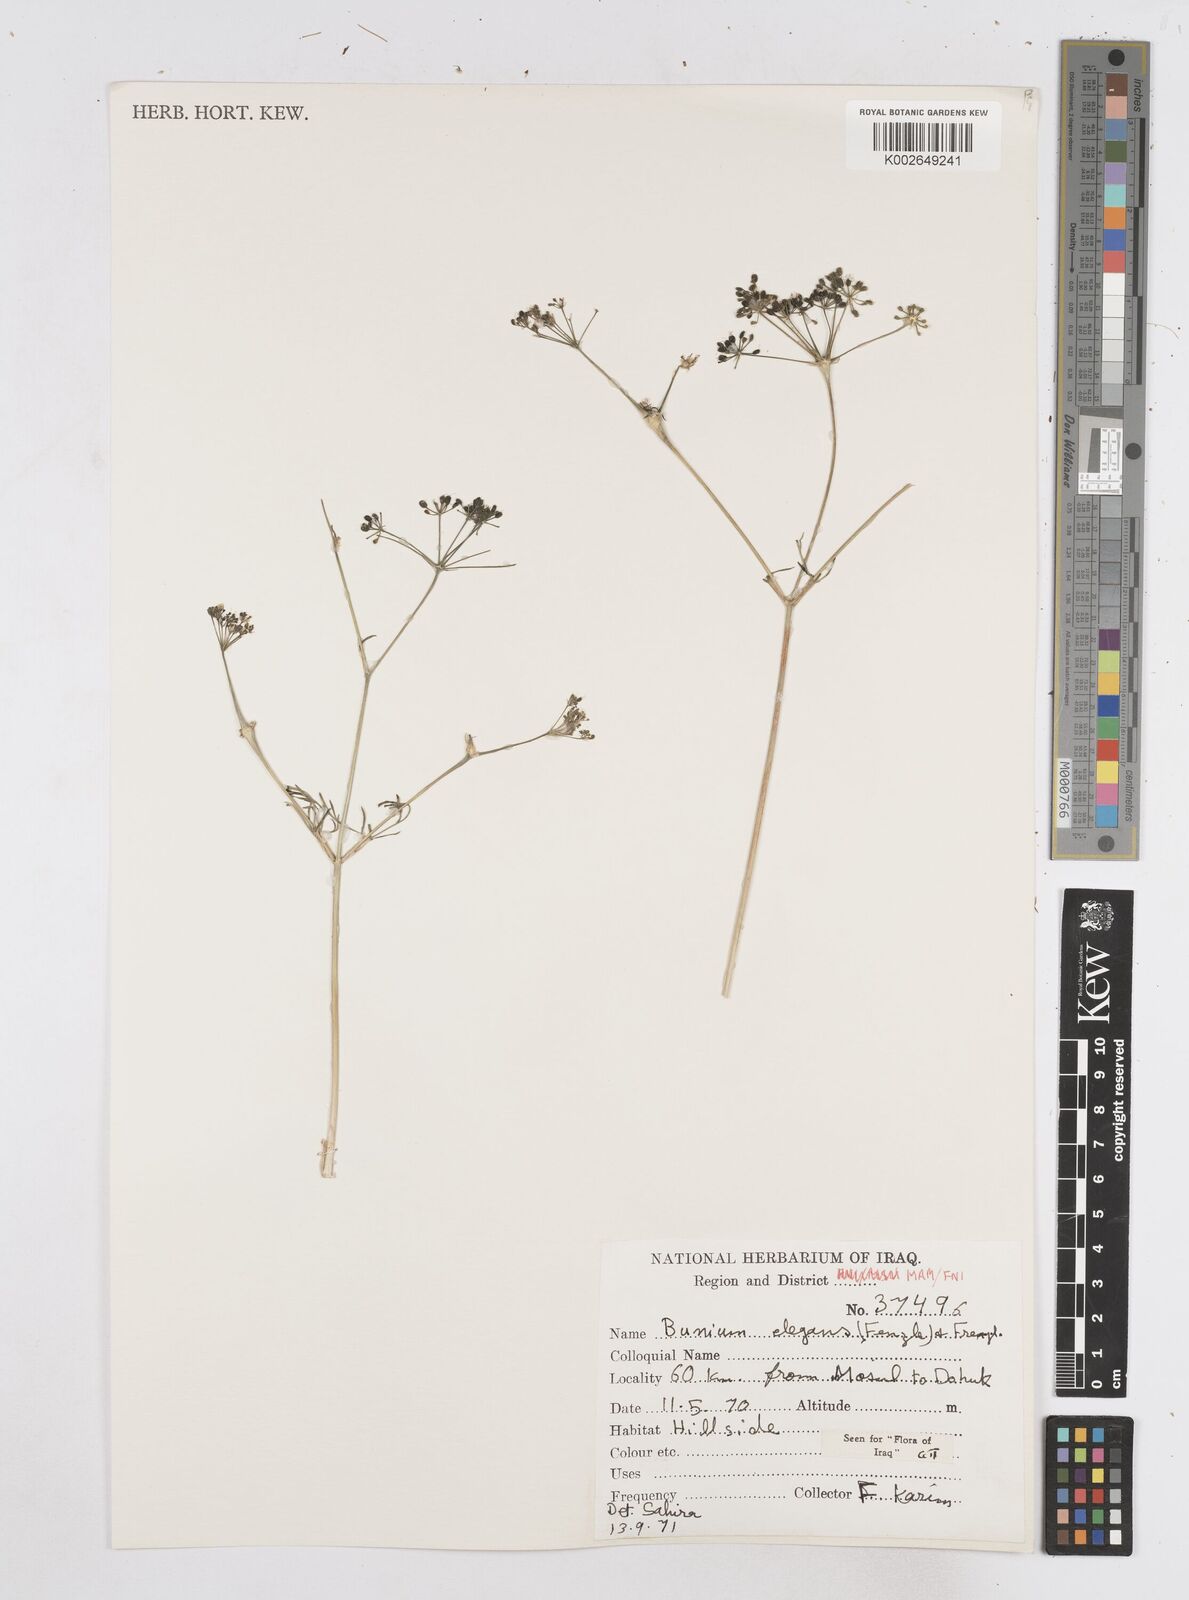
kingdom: Plantae
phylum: Tracheophyta
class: Magnoliopsida
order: Apiales
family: Apiaceae
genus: Bunium
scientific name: Bunium paucifolium
